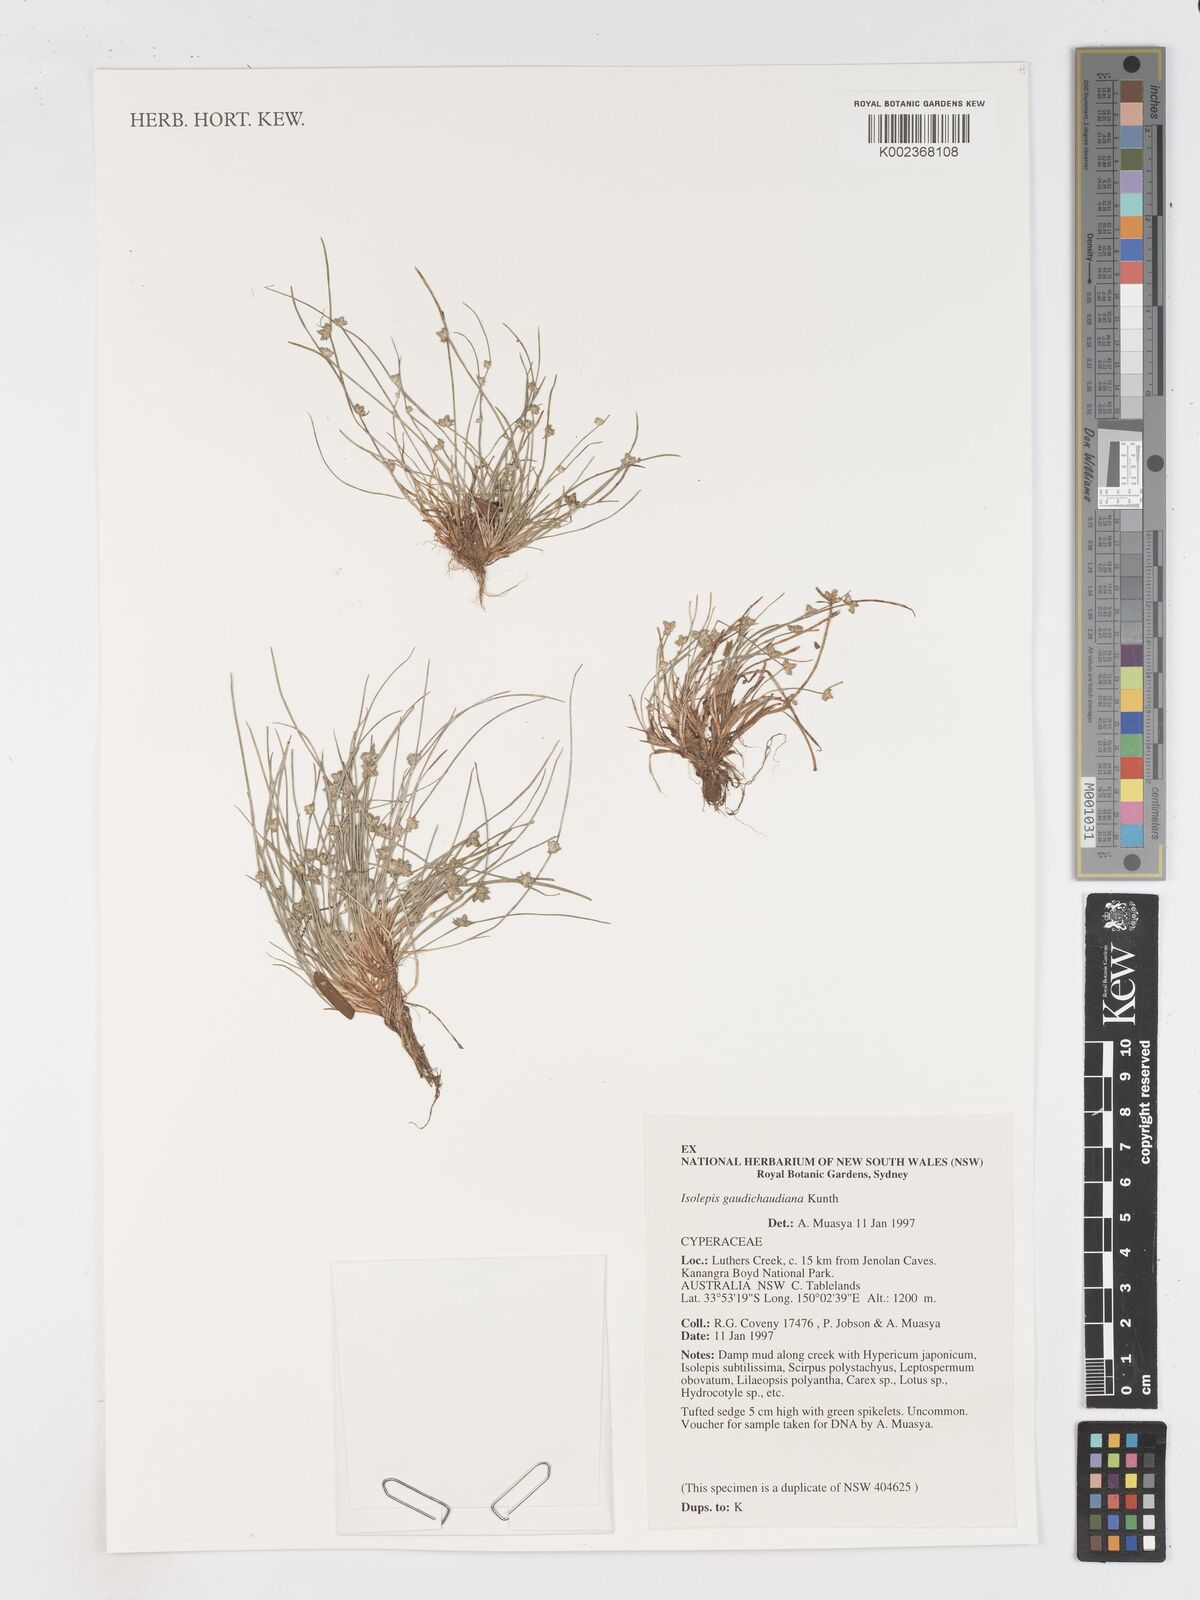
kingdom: Plantae
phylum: Tracheophyta
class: Liliopsida
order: Poales
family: Cyperaceae
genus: Isolepis
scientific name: Isolepis gaudichaudiana
